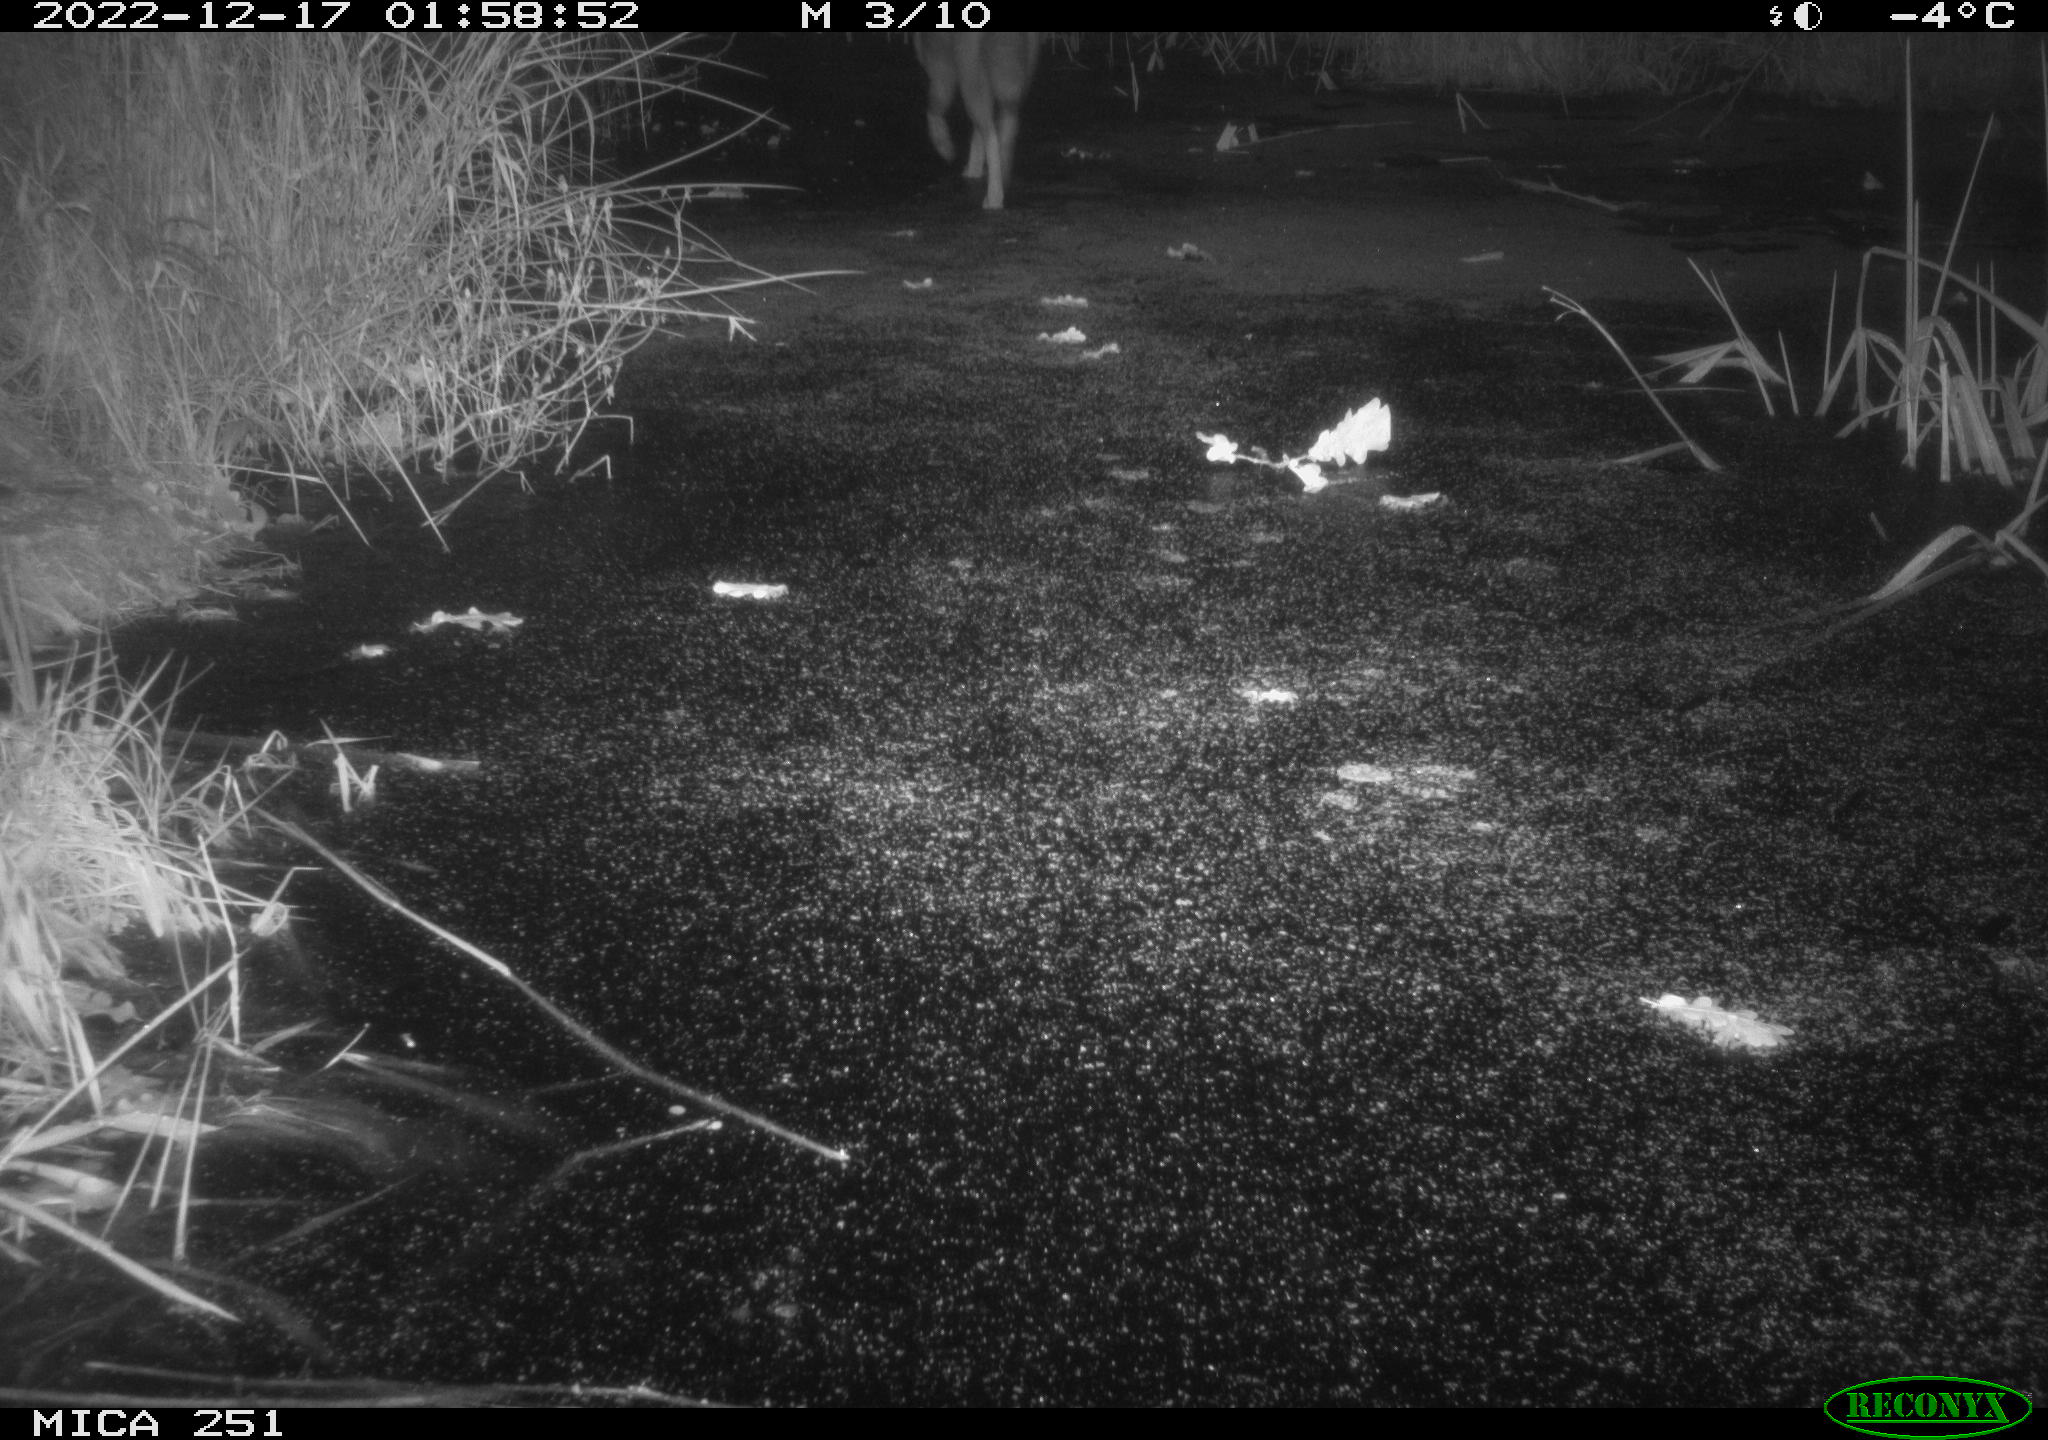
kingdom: Animalia
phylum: Chordata
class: Mammalia
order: Carnivora
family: Canidae
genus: Vulpes
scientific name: Vulpes vulpes
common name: Red fox
